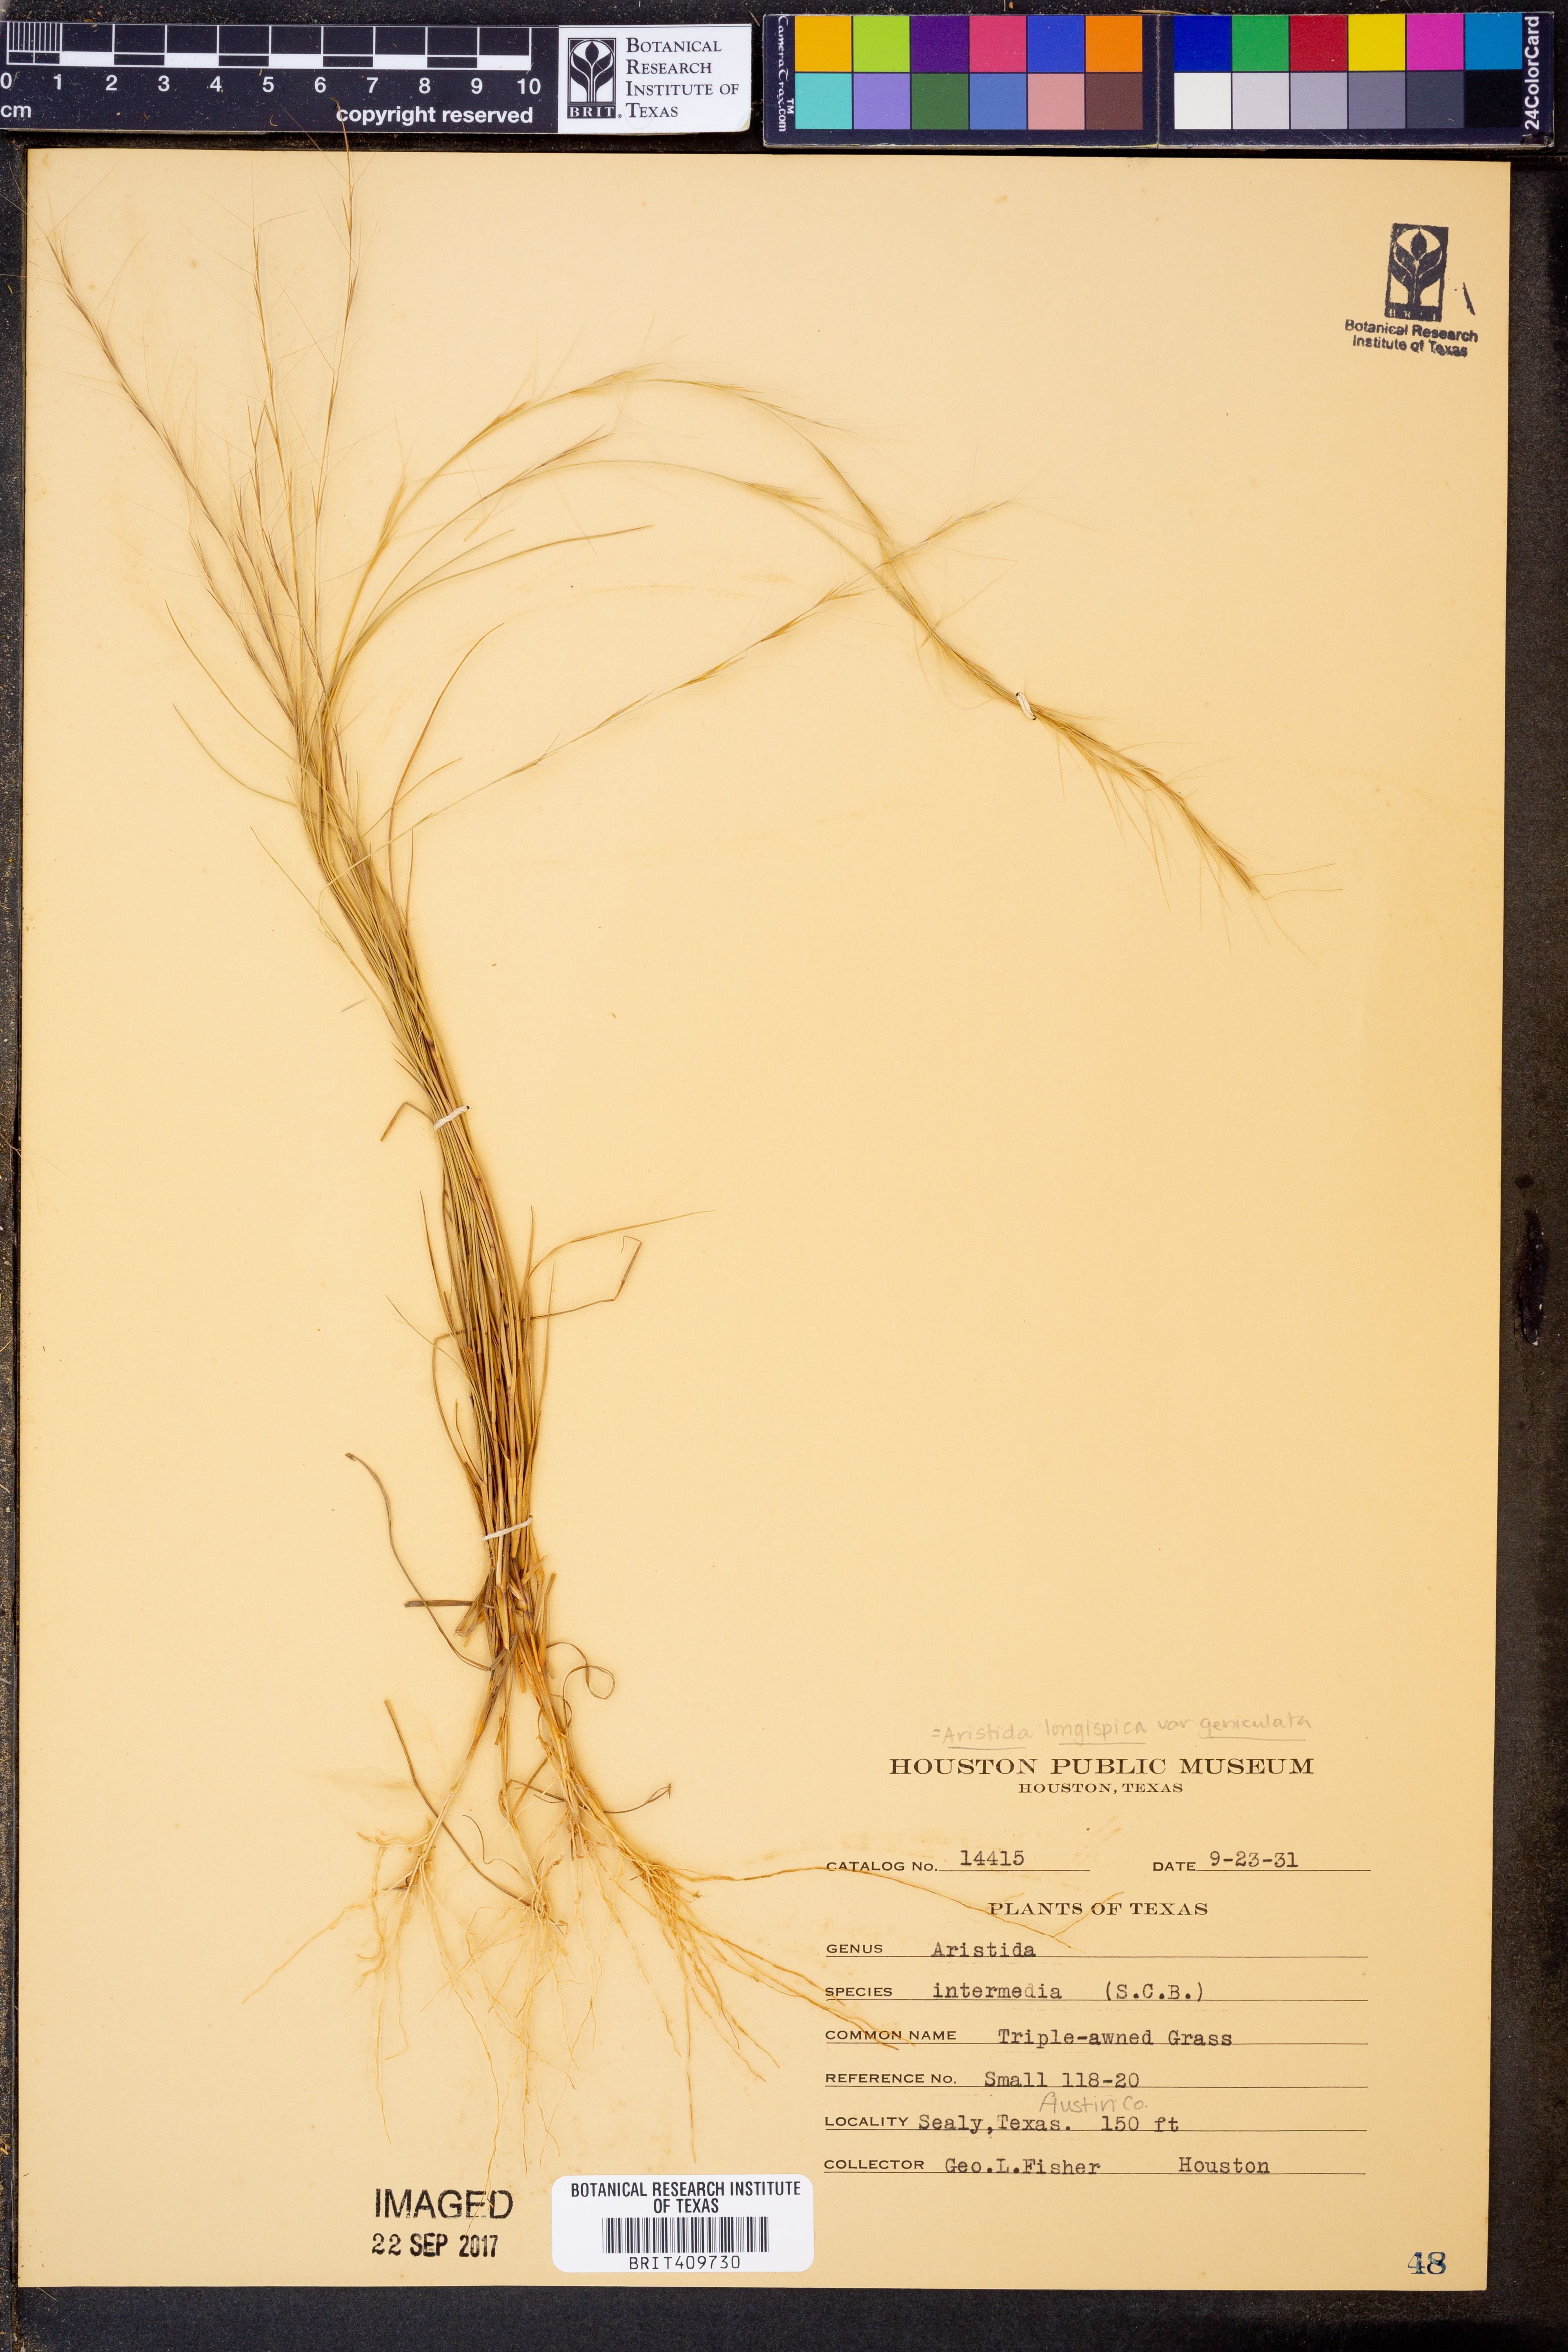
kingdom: Plantae
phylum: Tracheophyta
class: Liliopsida
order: Poales
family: Poaceae
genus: Aristida
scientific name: Aristida longespica
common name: Long-spiked triple-awned grass
